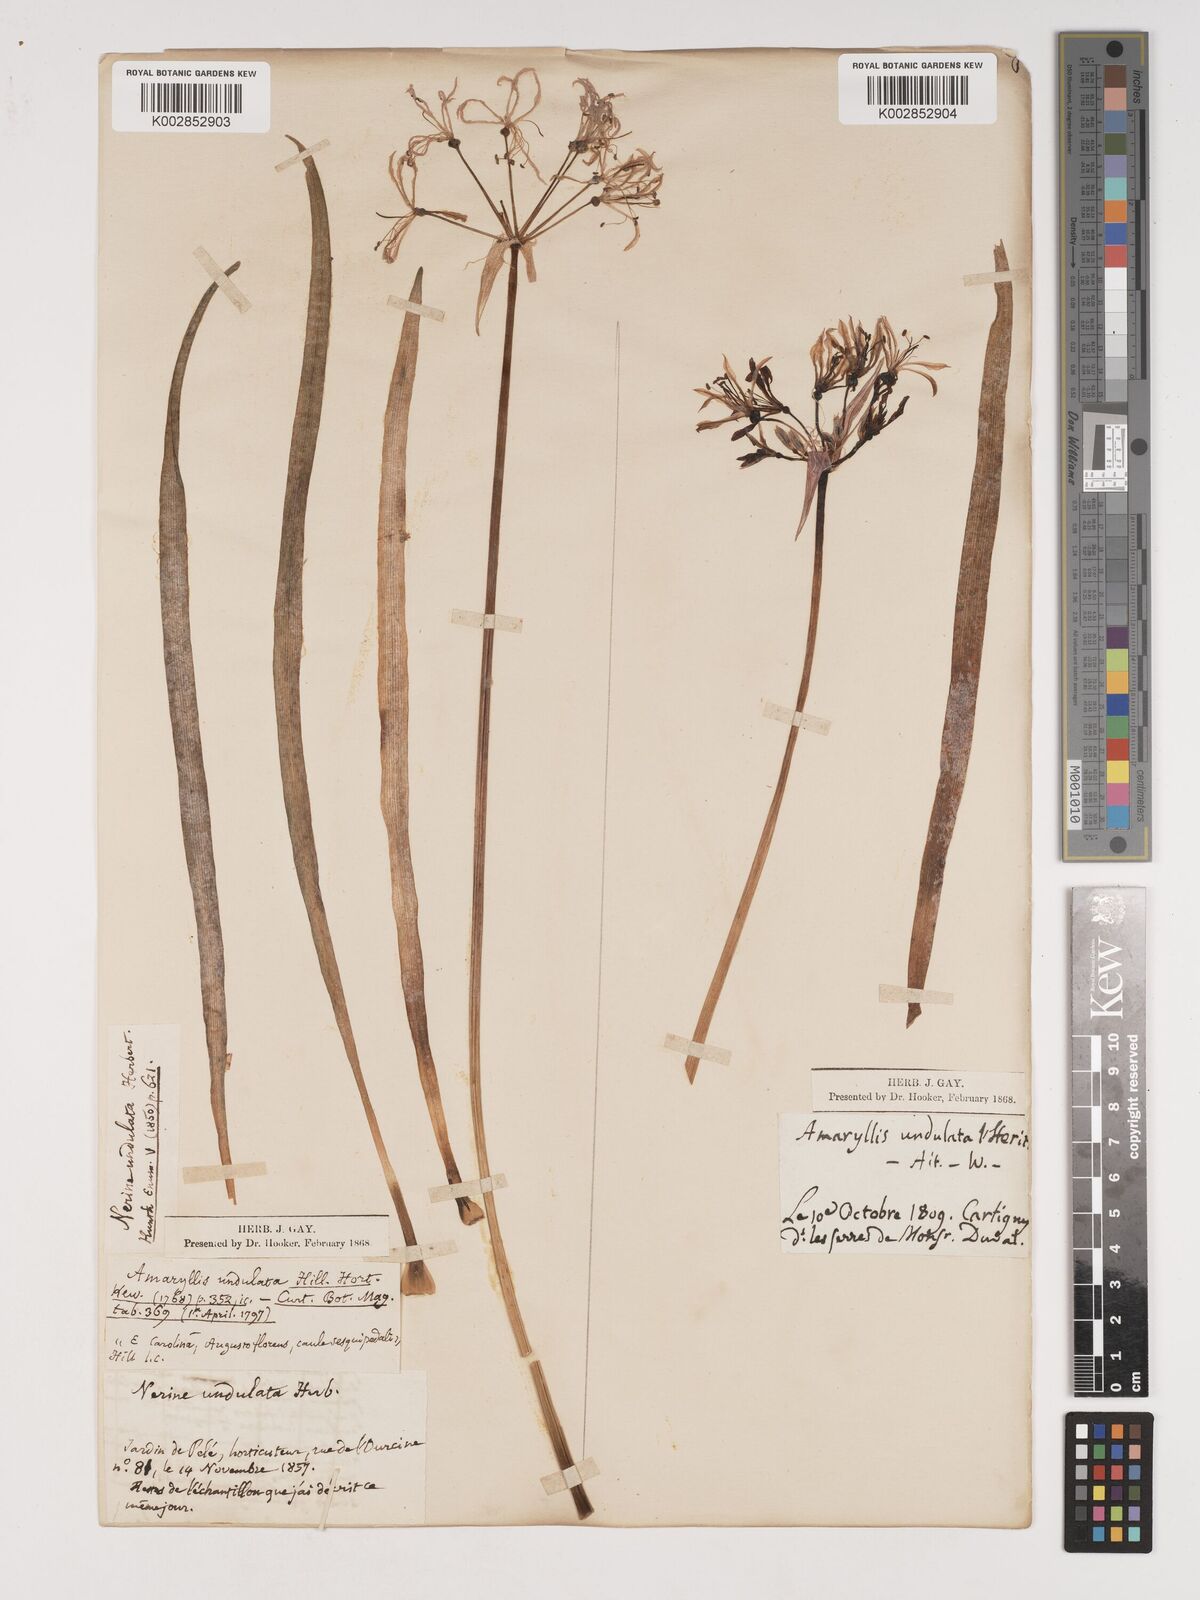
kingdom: Plantae
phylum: Tracheophyta
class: Liliopsida
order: Asparagales
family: Amaryllidaceae
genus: Nerine
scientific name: Nerine undulata
